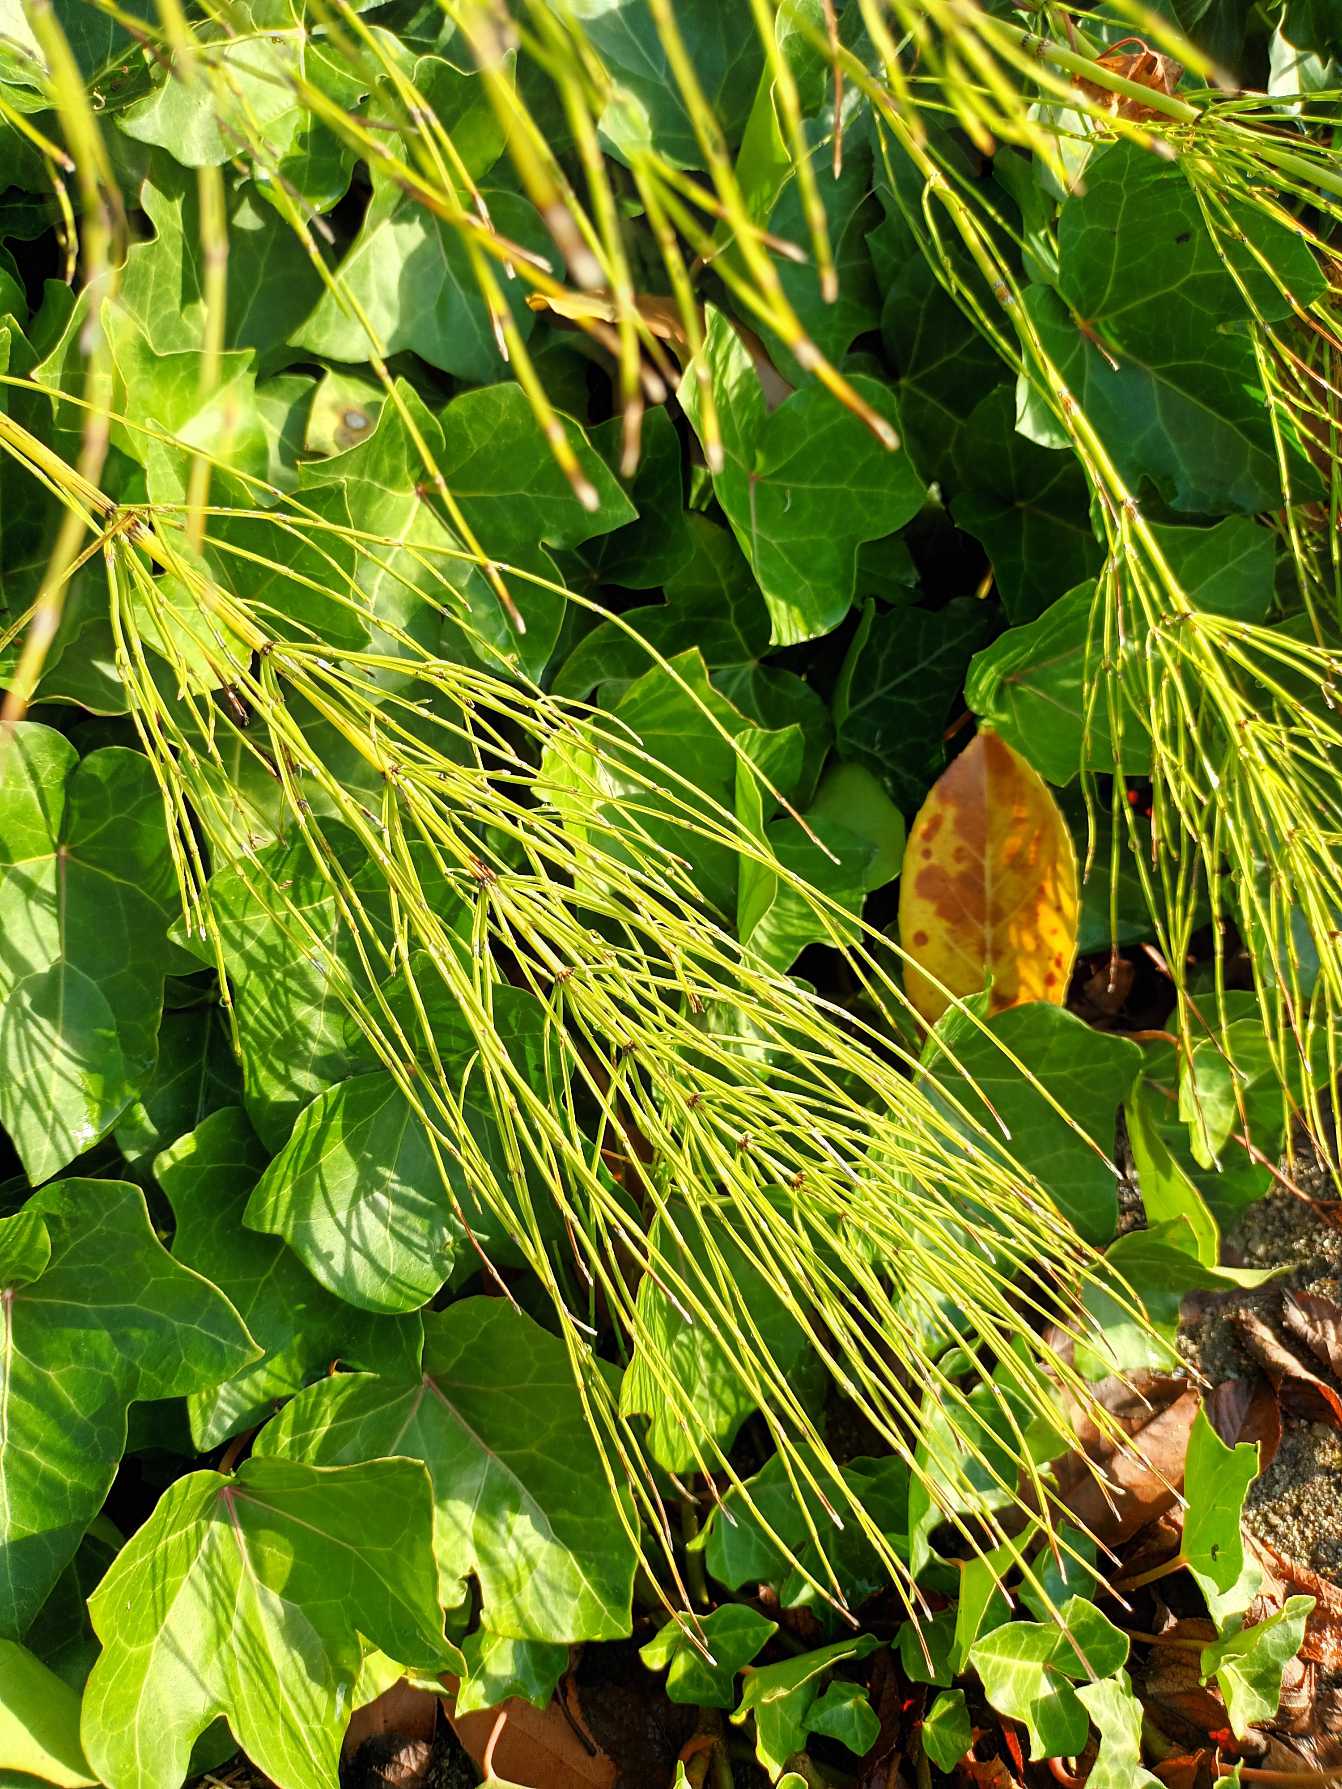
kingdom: Plantae
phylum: Tracheophyta
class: Polypodiopsida
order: Equisetales
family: Equisetaceae
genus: Equisetum
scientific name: Equisetum arvense
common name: Ager-padderok
